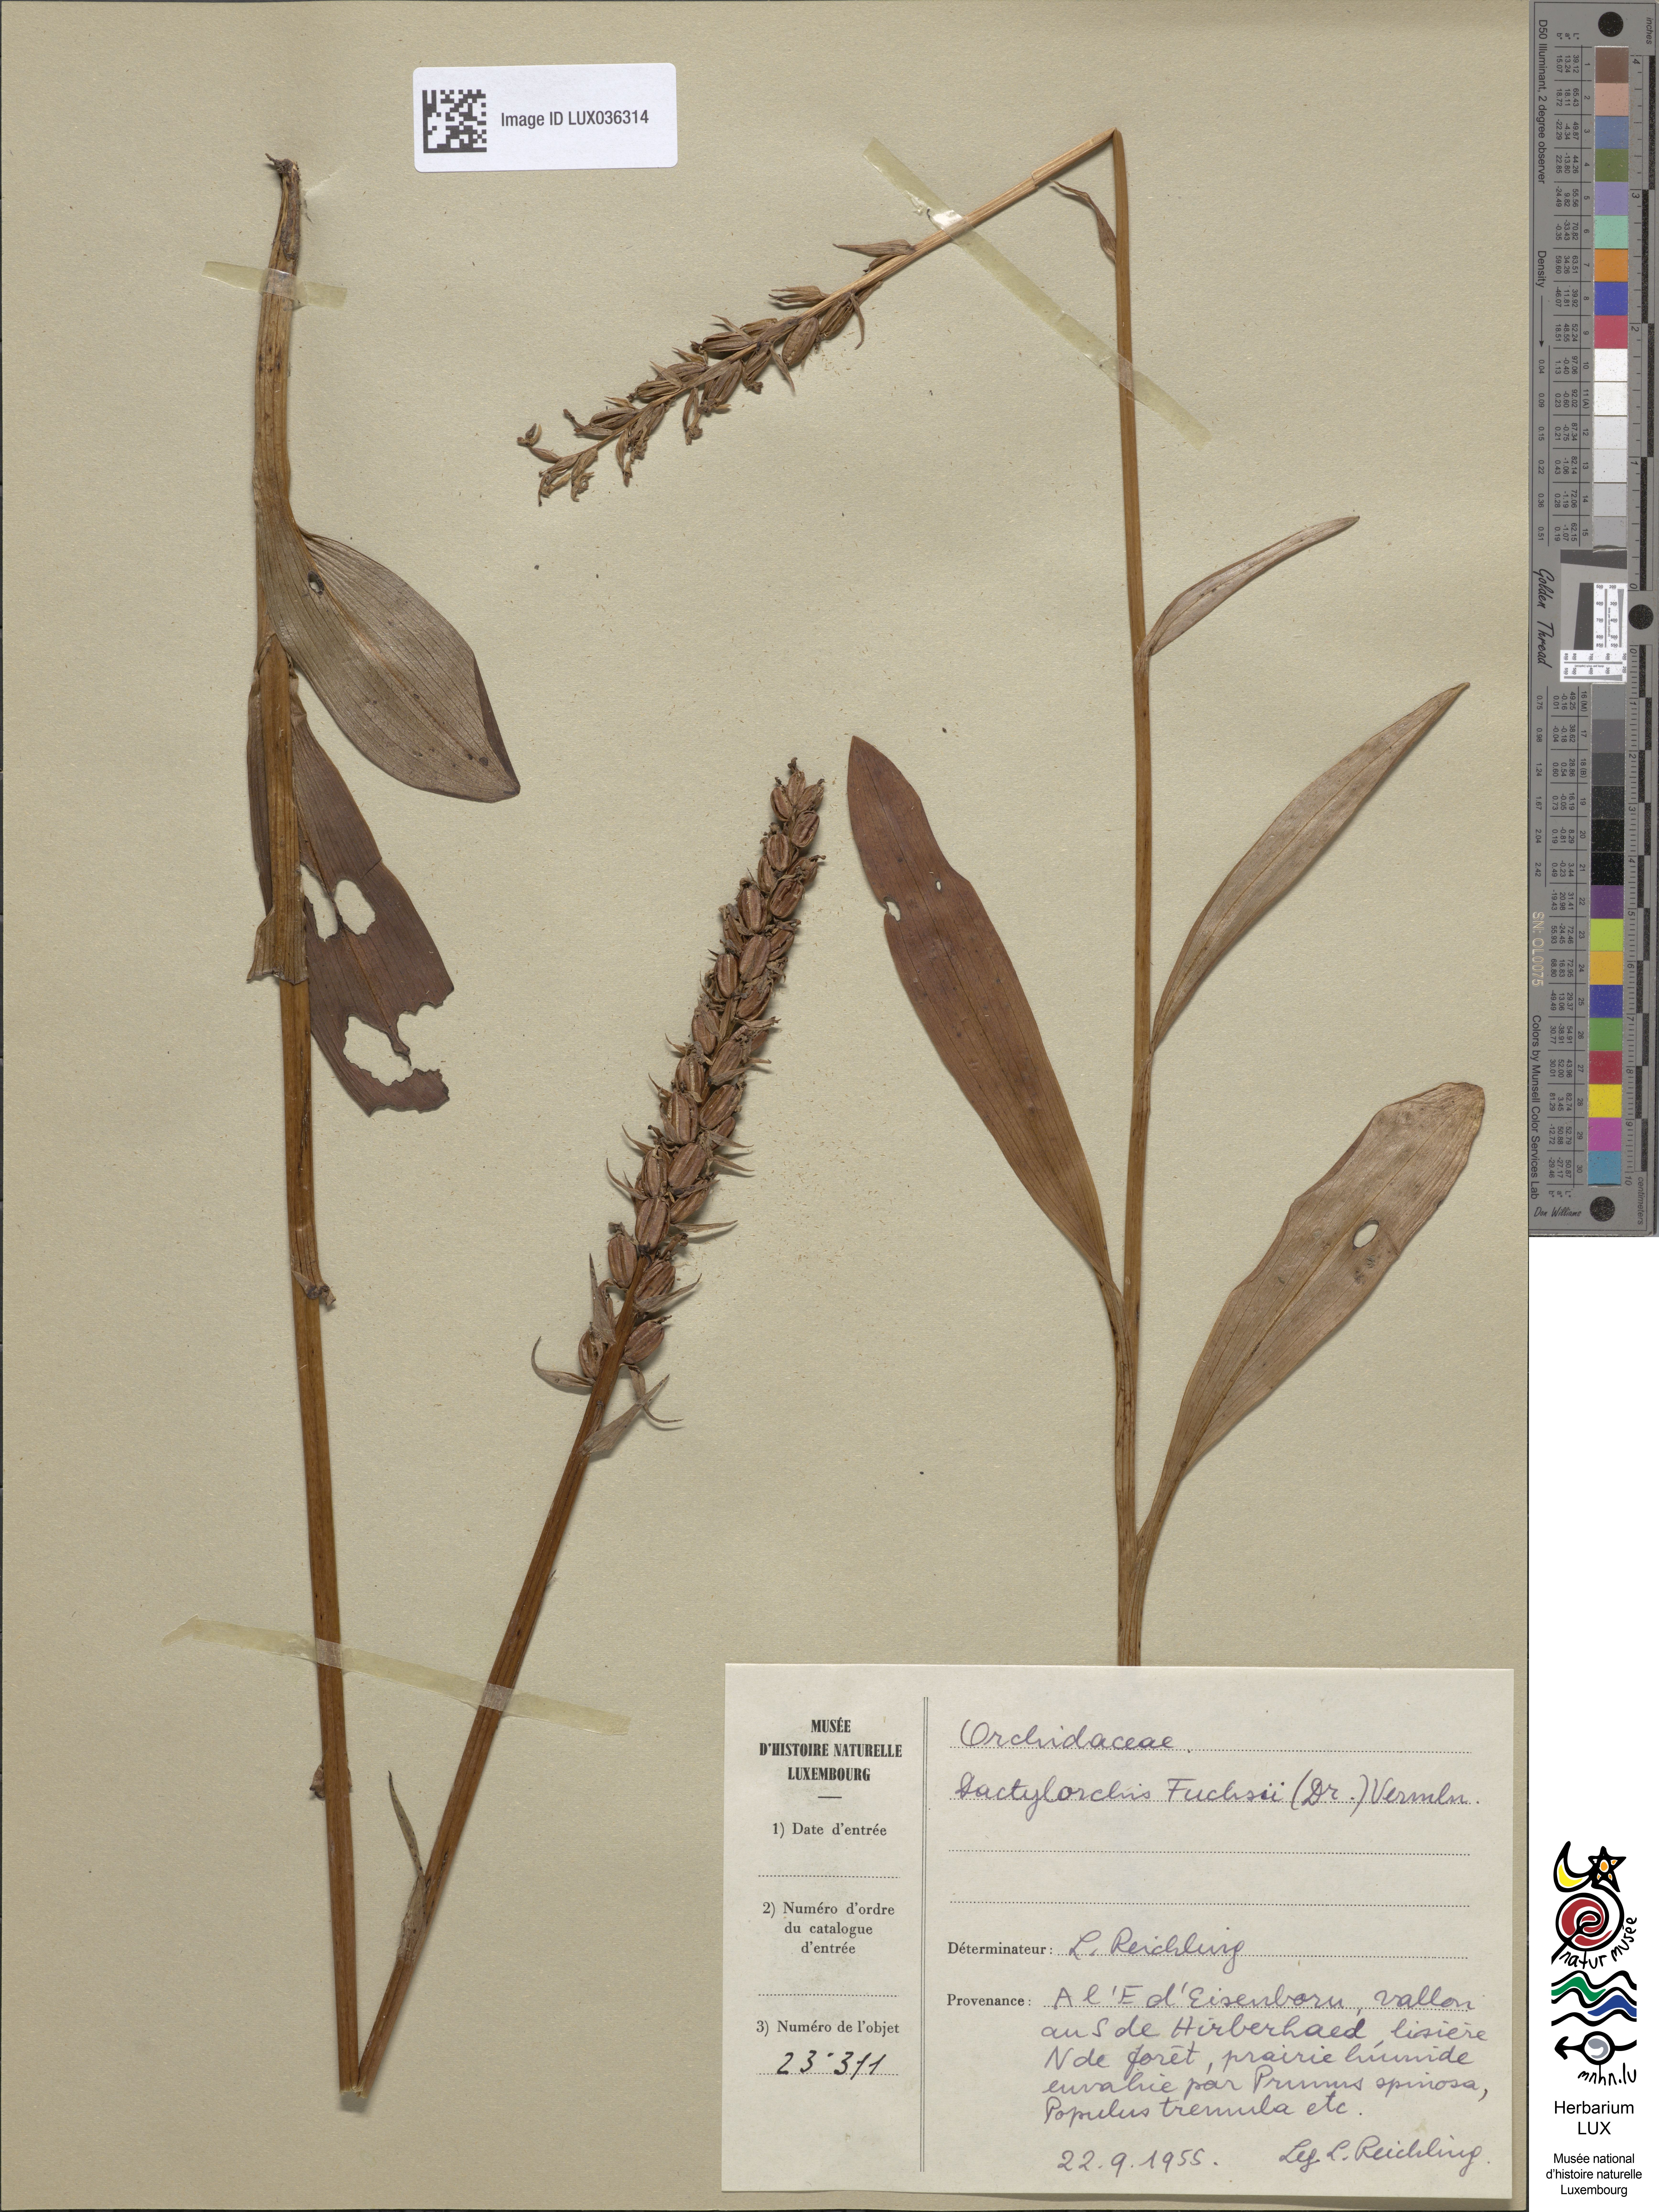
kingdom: Plantae
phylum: Tracheophyta
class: Liliopsida
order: Asparagales
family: Orchidaceae
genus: Dactylorhiza
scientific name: Dactylorhiza maculata
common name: Heath spotted-orchid
